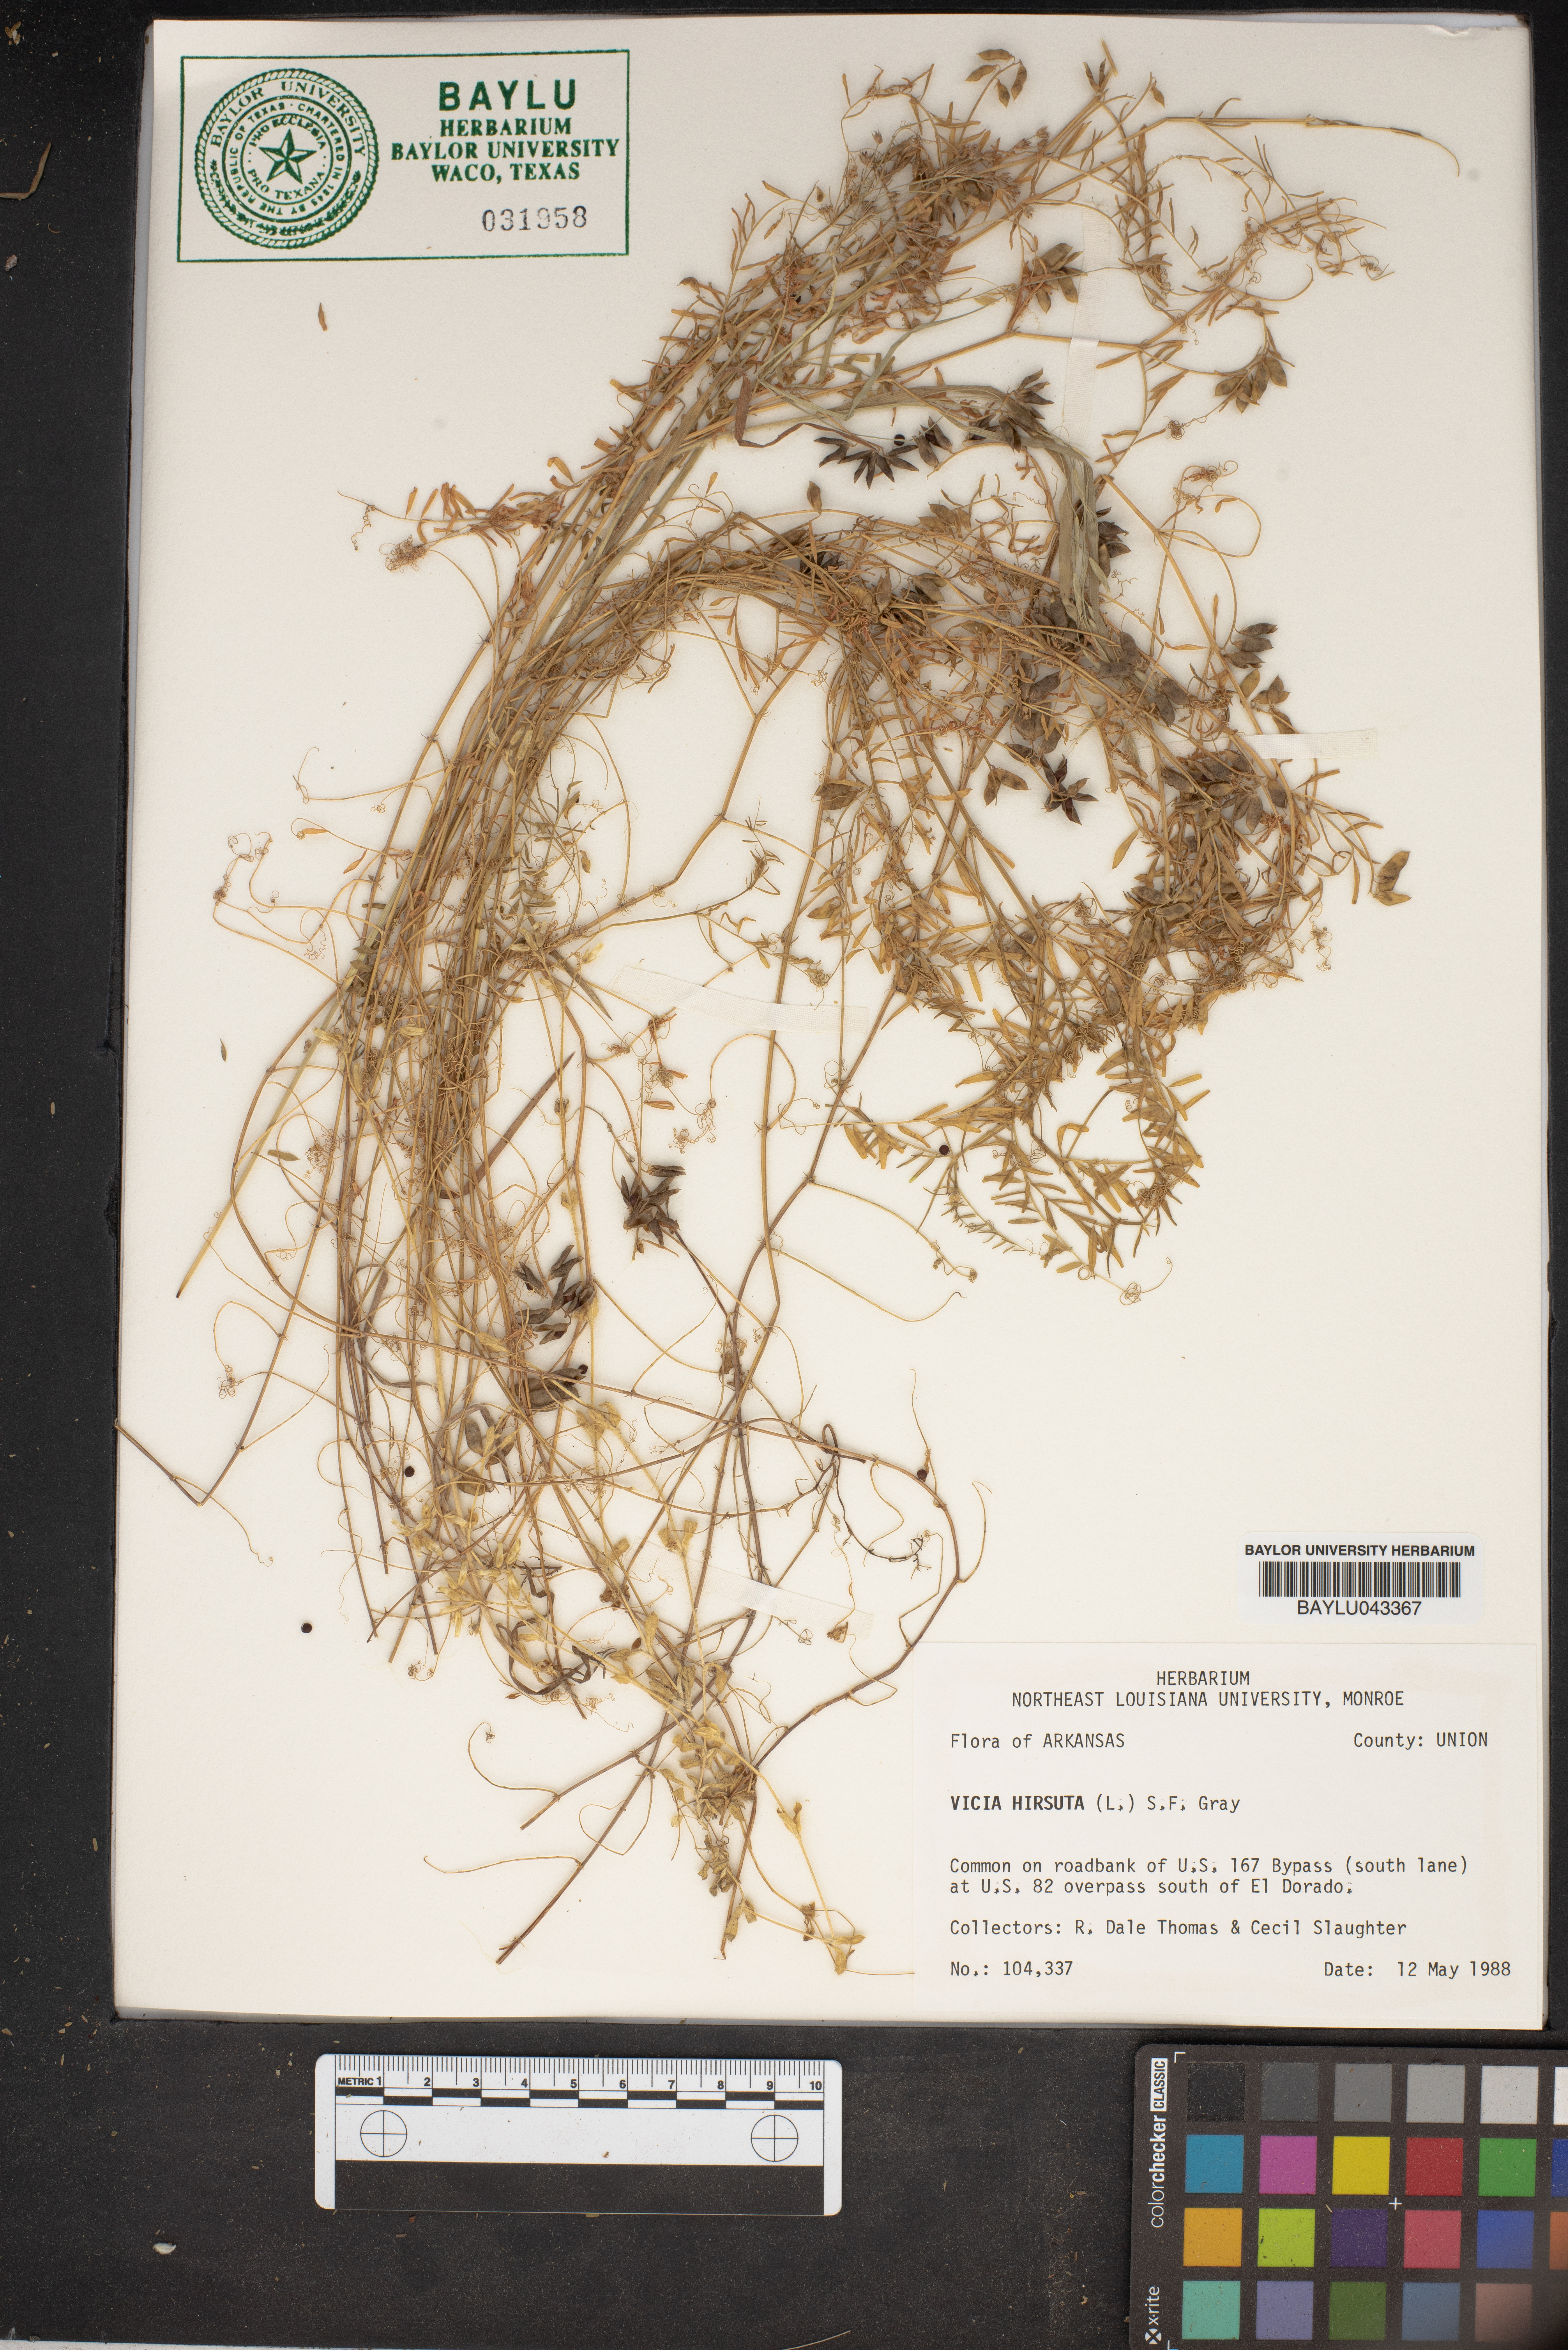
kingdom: Plantae
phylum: Tracheophyta
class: Magnoliopsida
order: Fabales
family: Fabaceae
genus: Vicia
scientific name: Vicia hirsuta
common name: Tiny vetch
